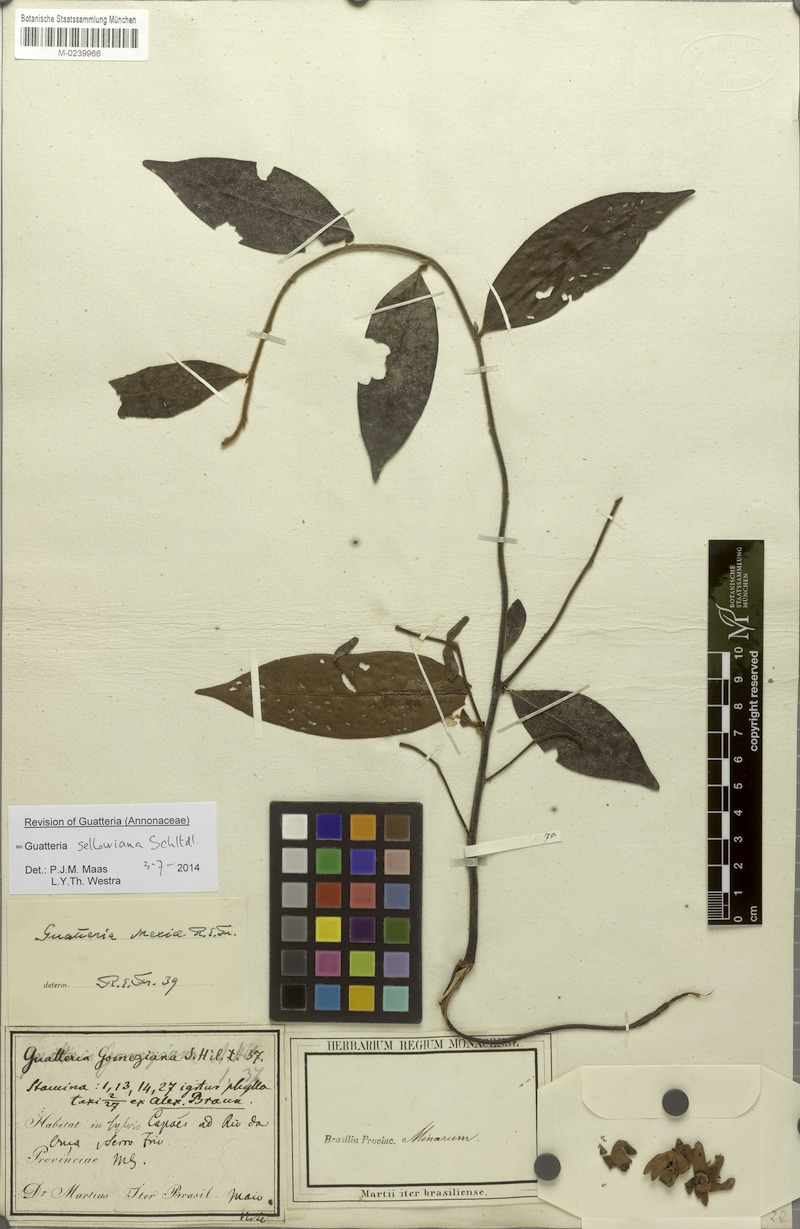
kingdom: Plantae
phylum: Tracheophyta
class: Magnoliopsida
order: Magnoliales
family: Annonaceae
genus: Guatteria
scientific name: Guatteria sellowiana
